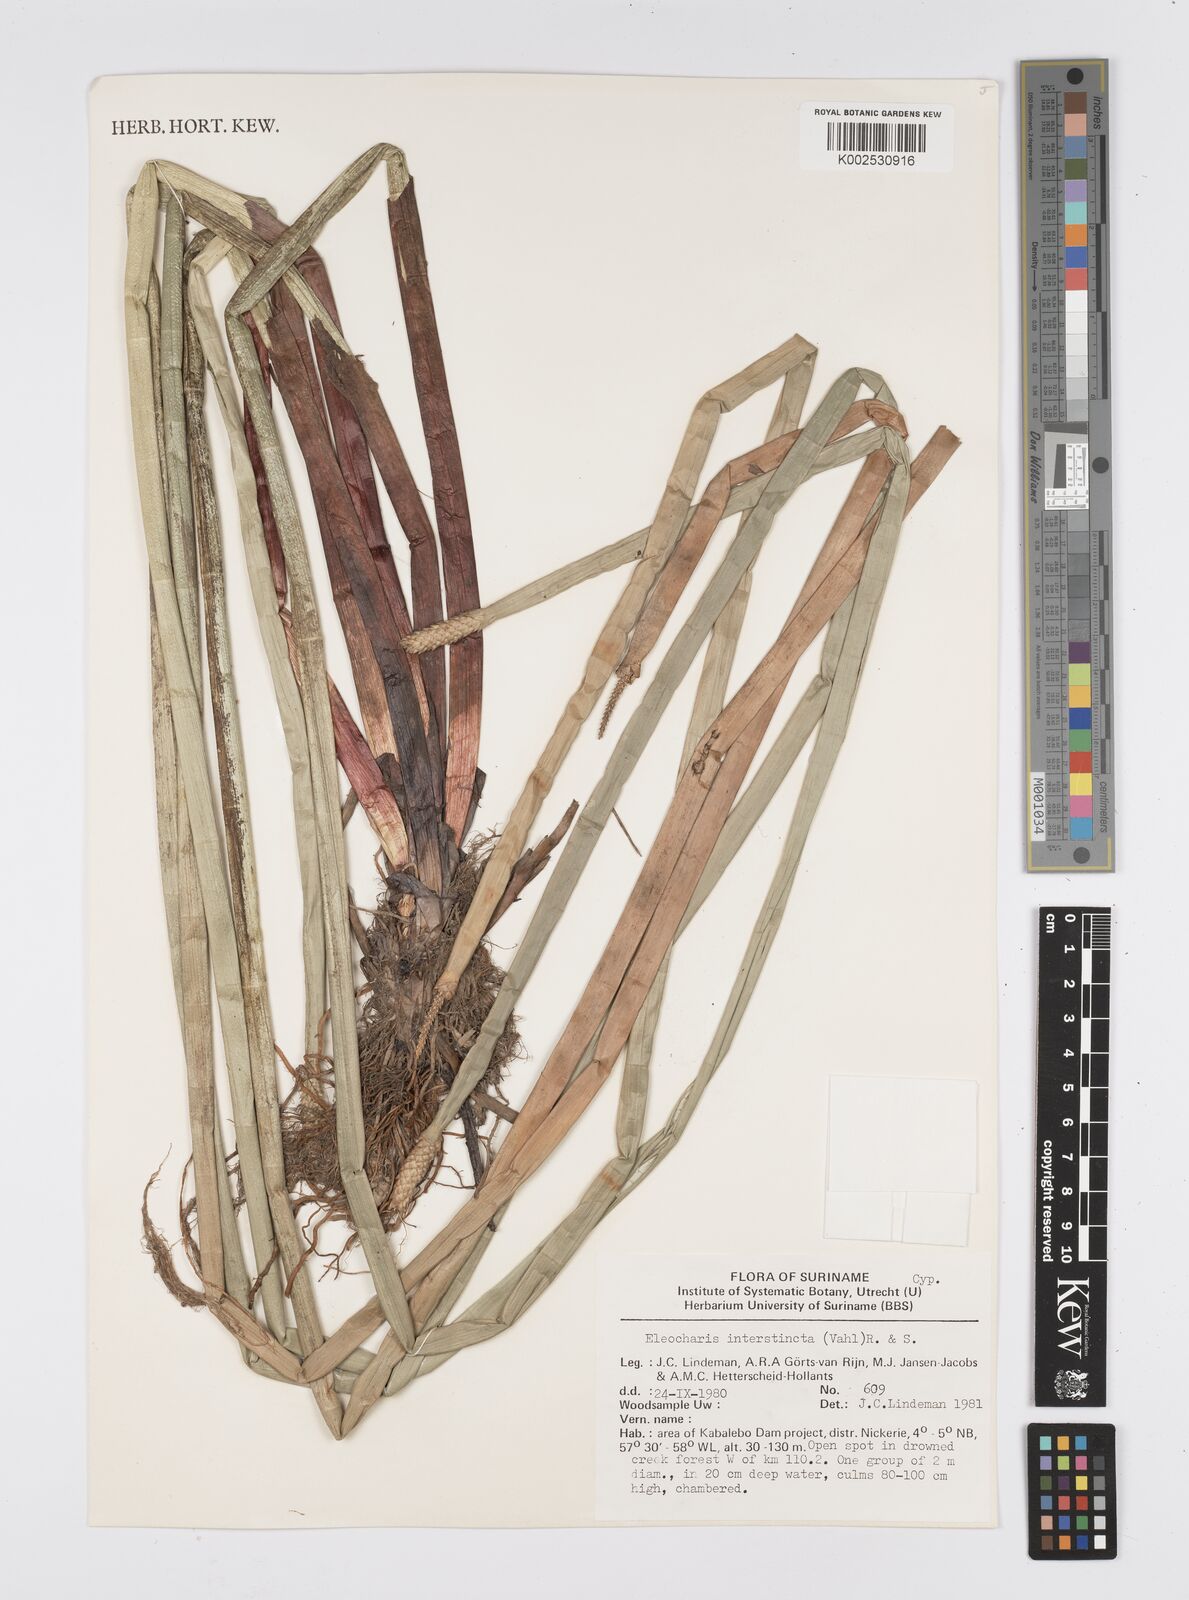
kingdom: Plantae
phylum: Tracheophyta
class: Liliopsida
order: Poales
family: Cyperaceae
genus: Eleocharis
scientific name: Eleocharis interstincta
